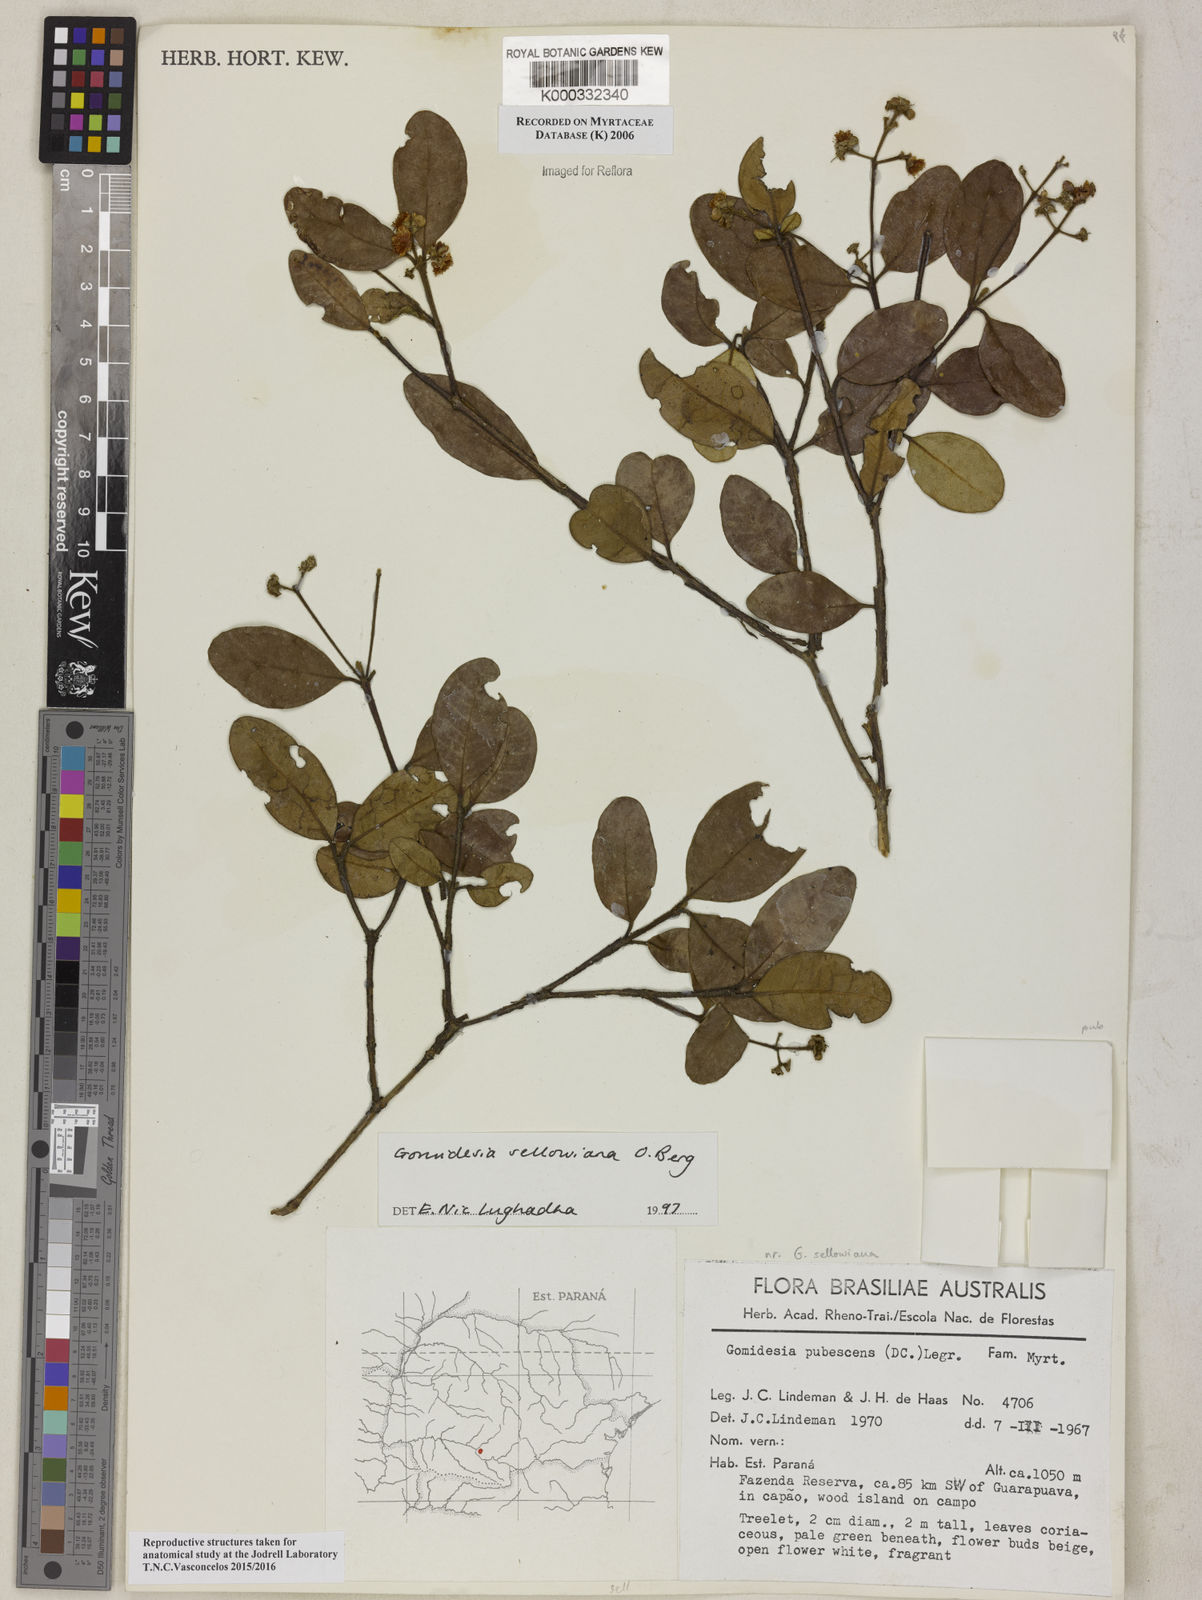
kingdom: Plantae
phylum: Tracheophyta
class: Magnoliopsida
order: Myrtales
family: Myrtaceae
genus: Myrcia
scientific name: Myrcia hartwegiana
